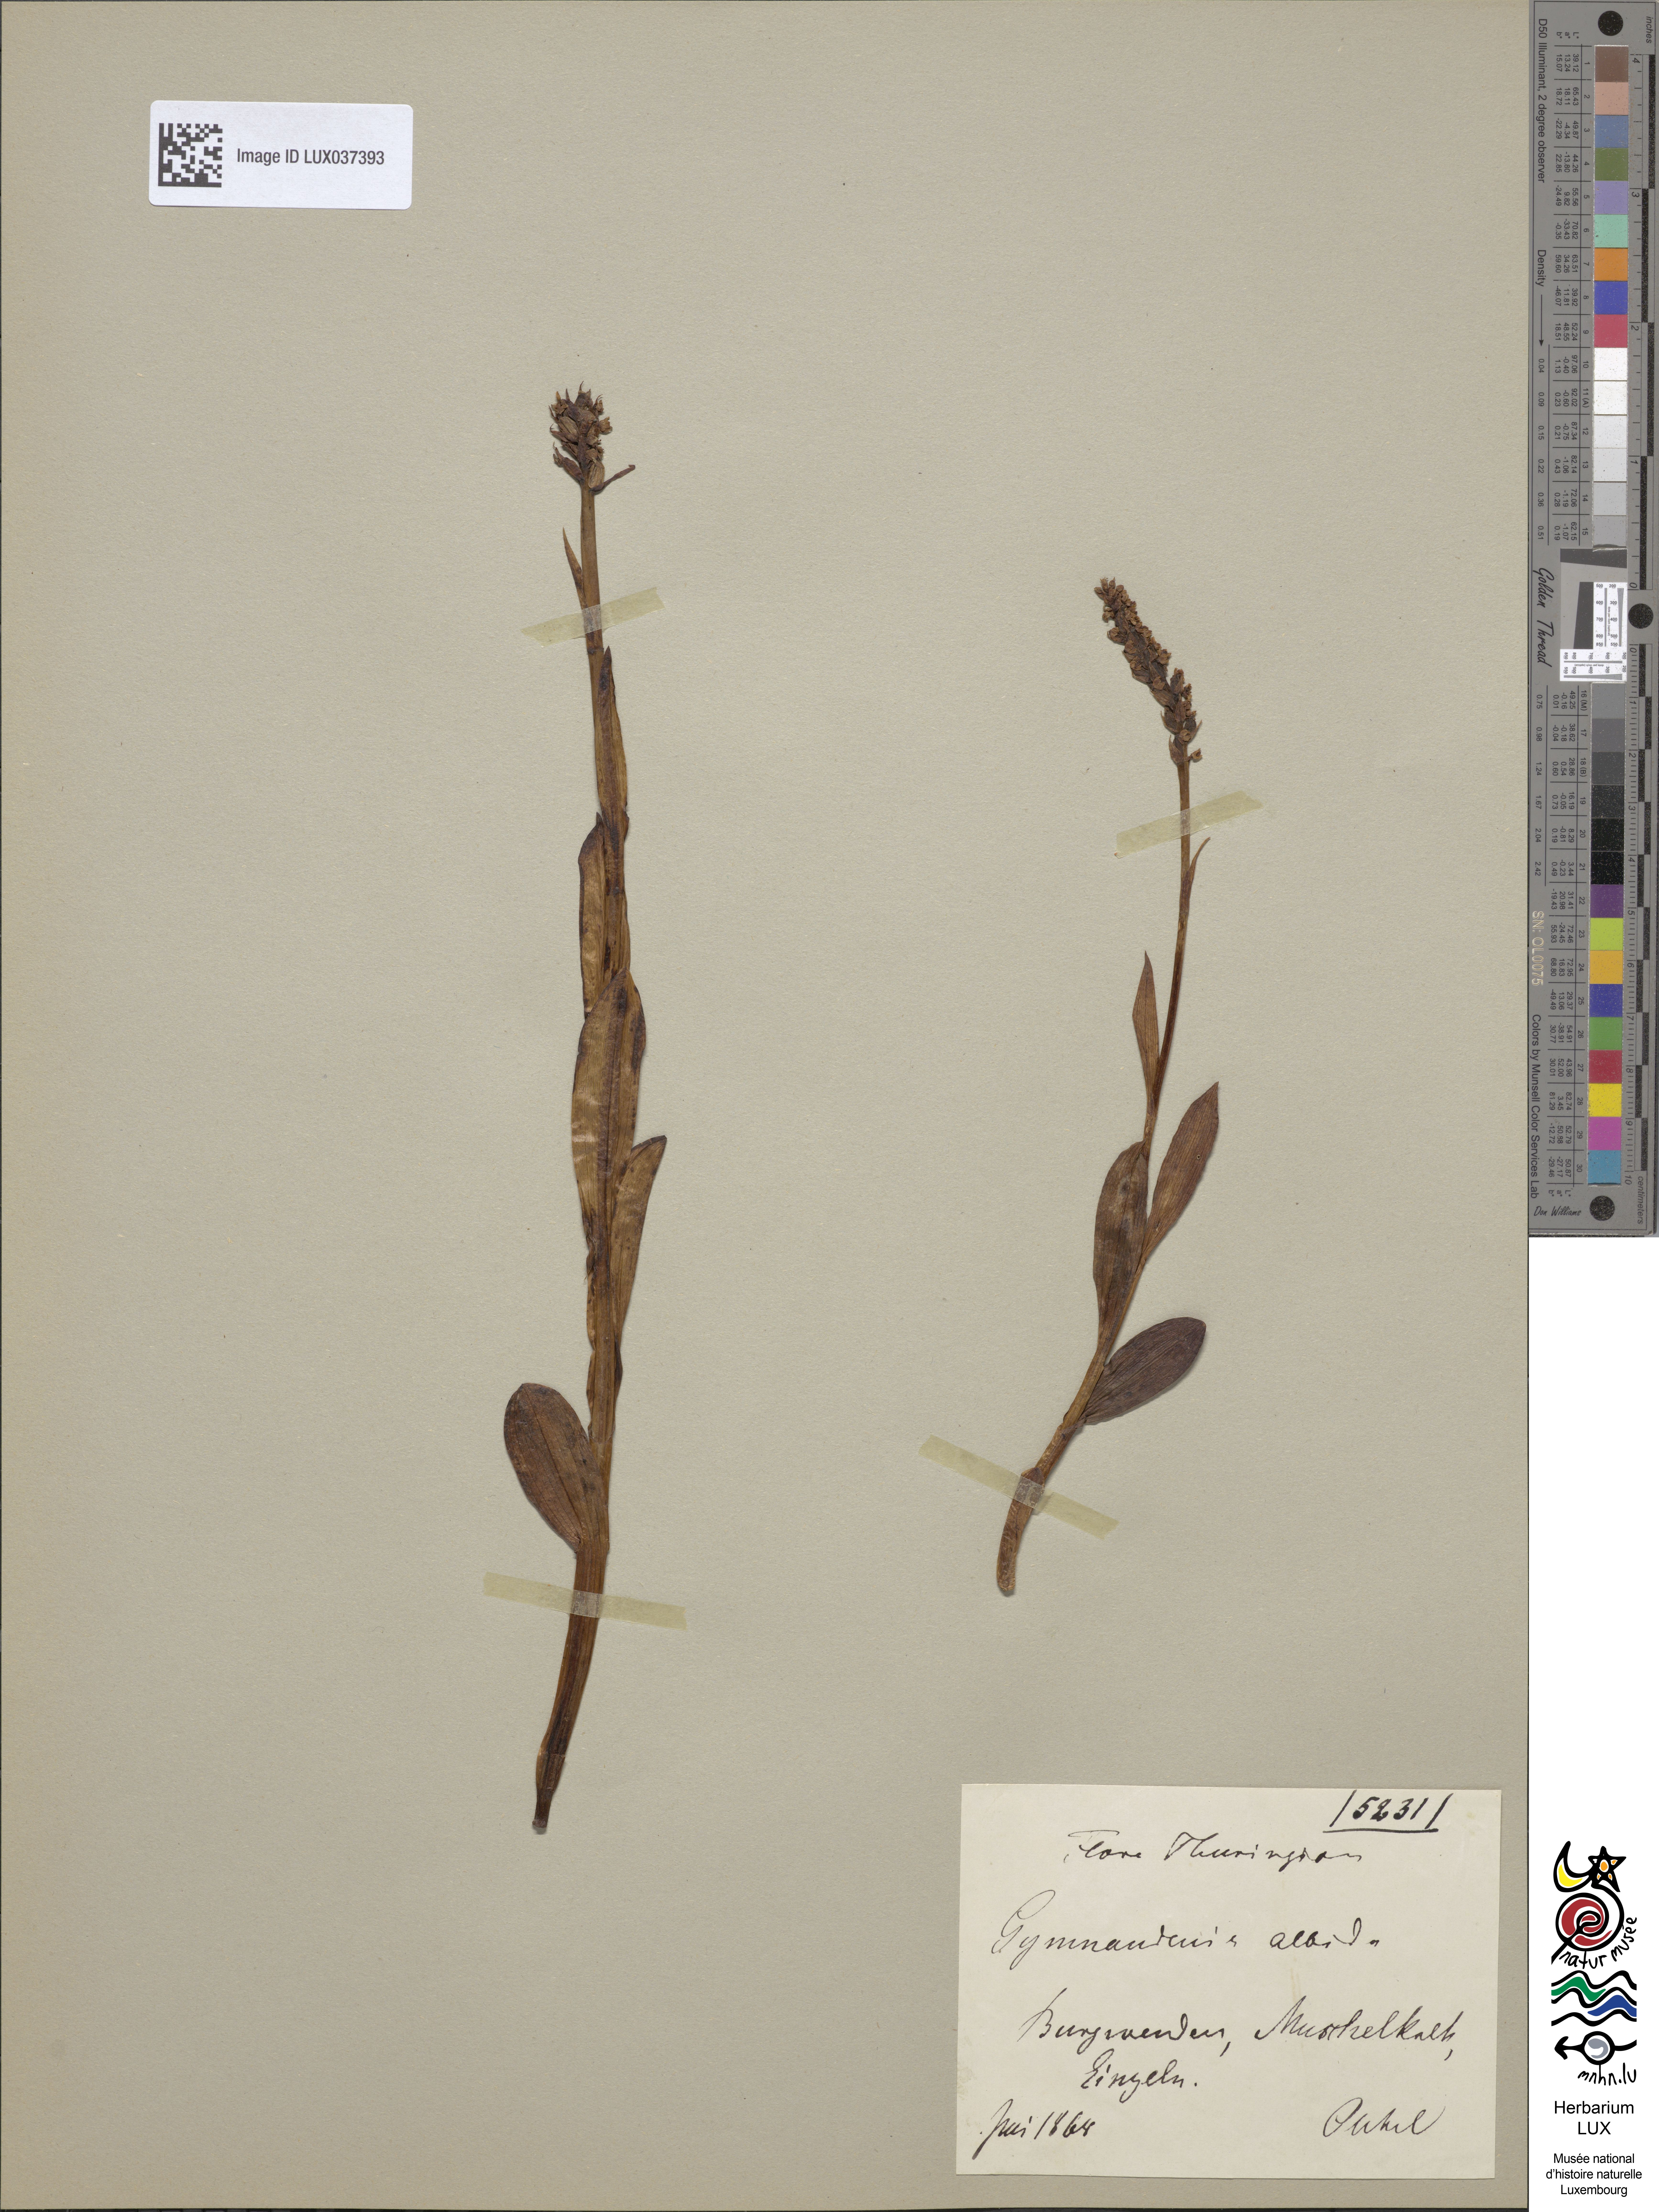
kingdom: Plantae
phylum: Tracheophyta
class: Liliopsida
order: Asparagales
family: Orchidaceae
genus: Pseudorchis
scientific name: Pseudorchis albida
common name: Small-white orchid
